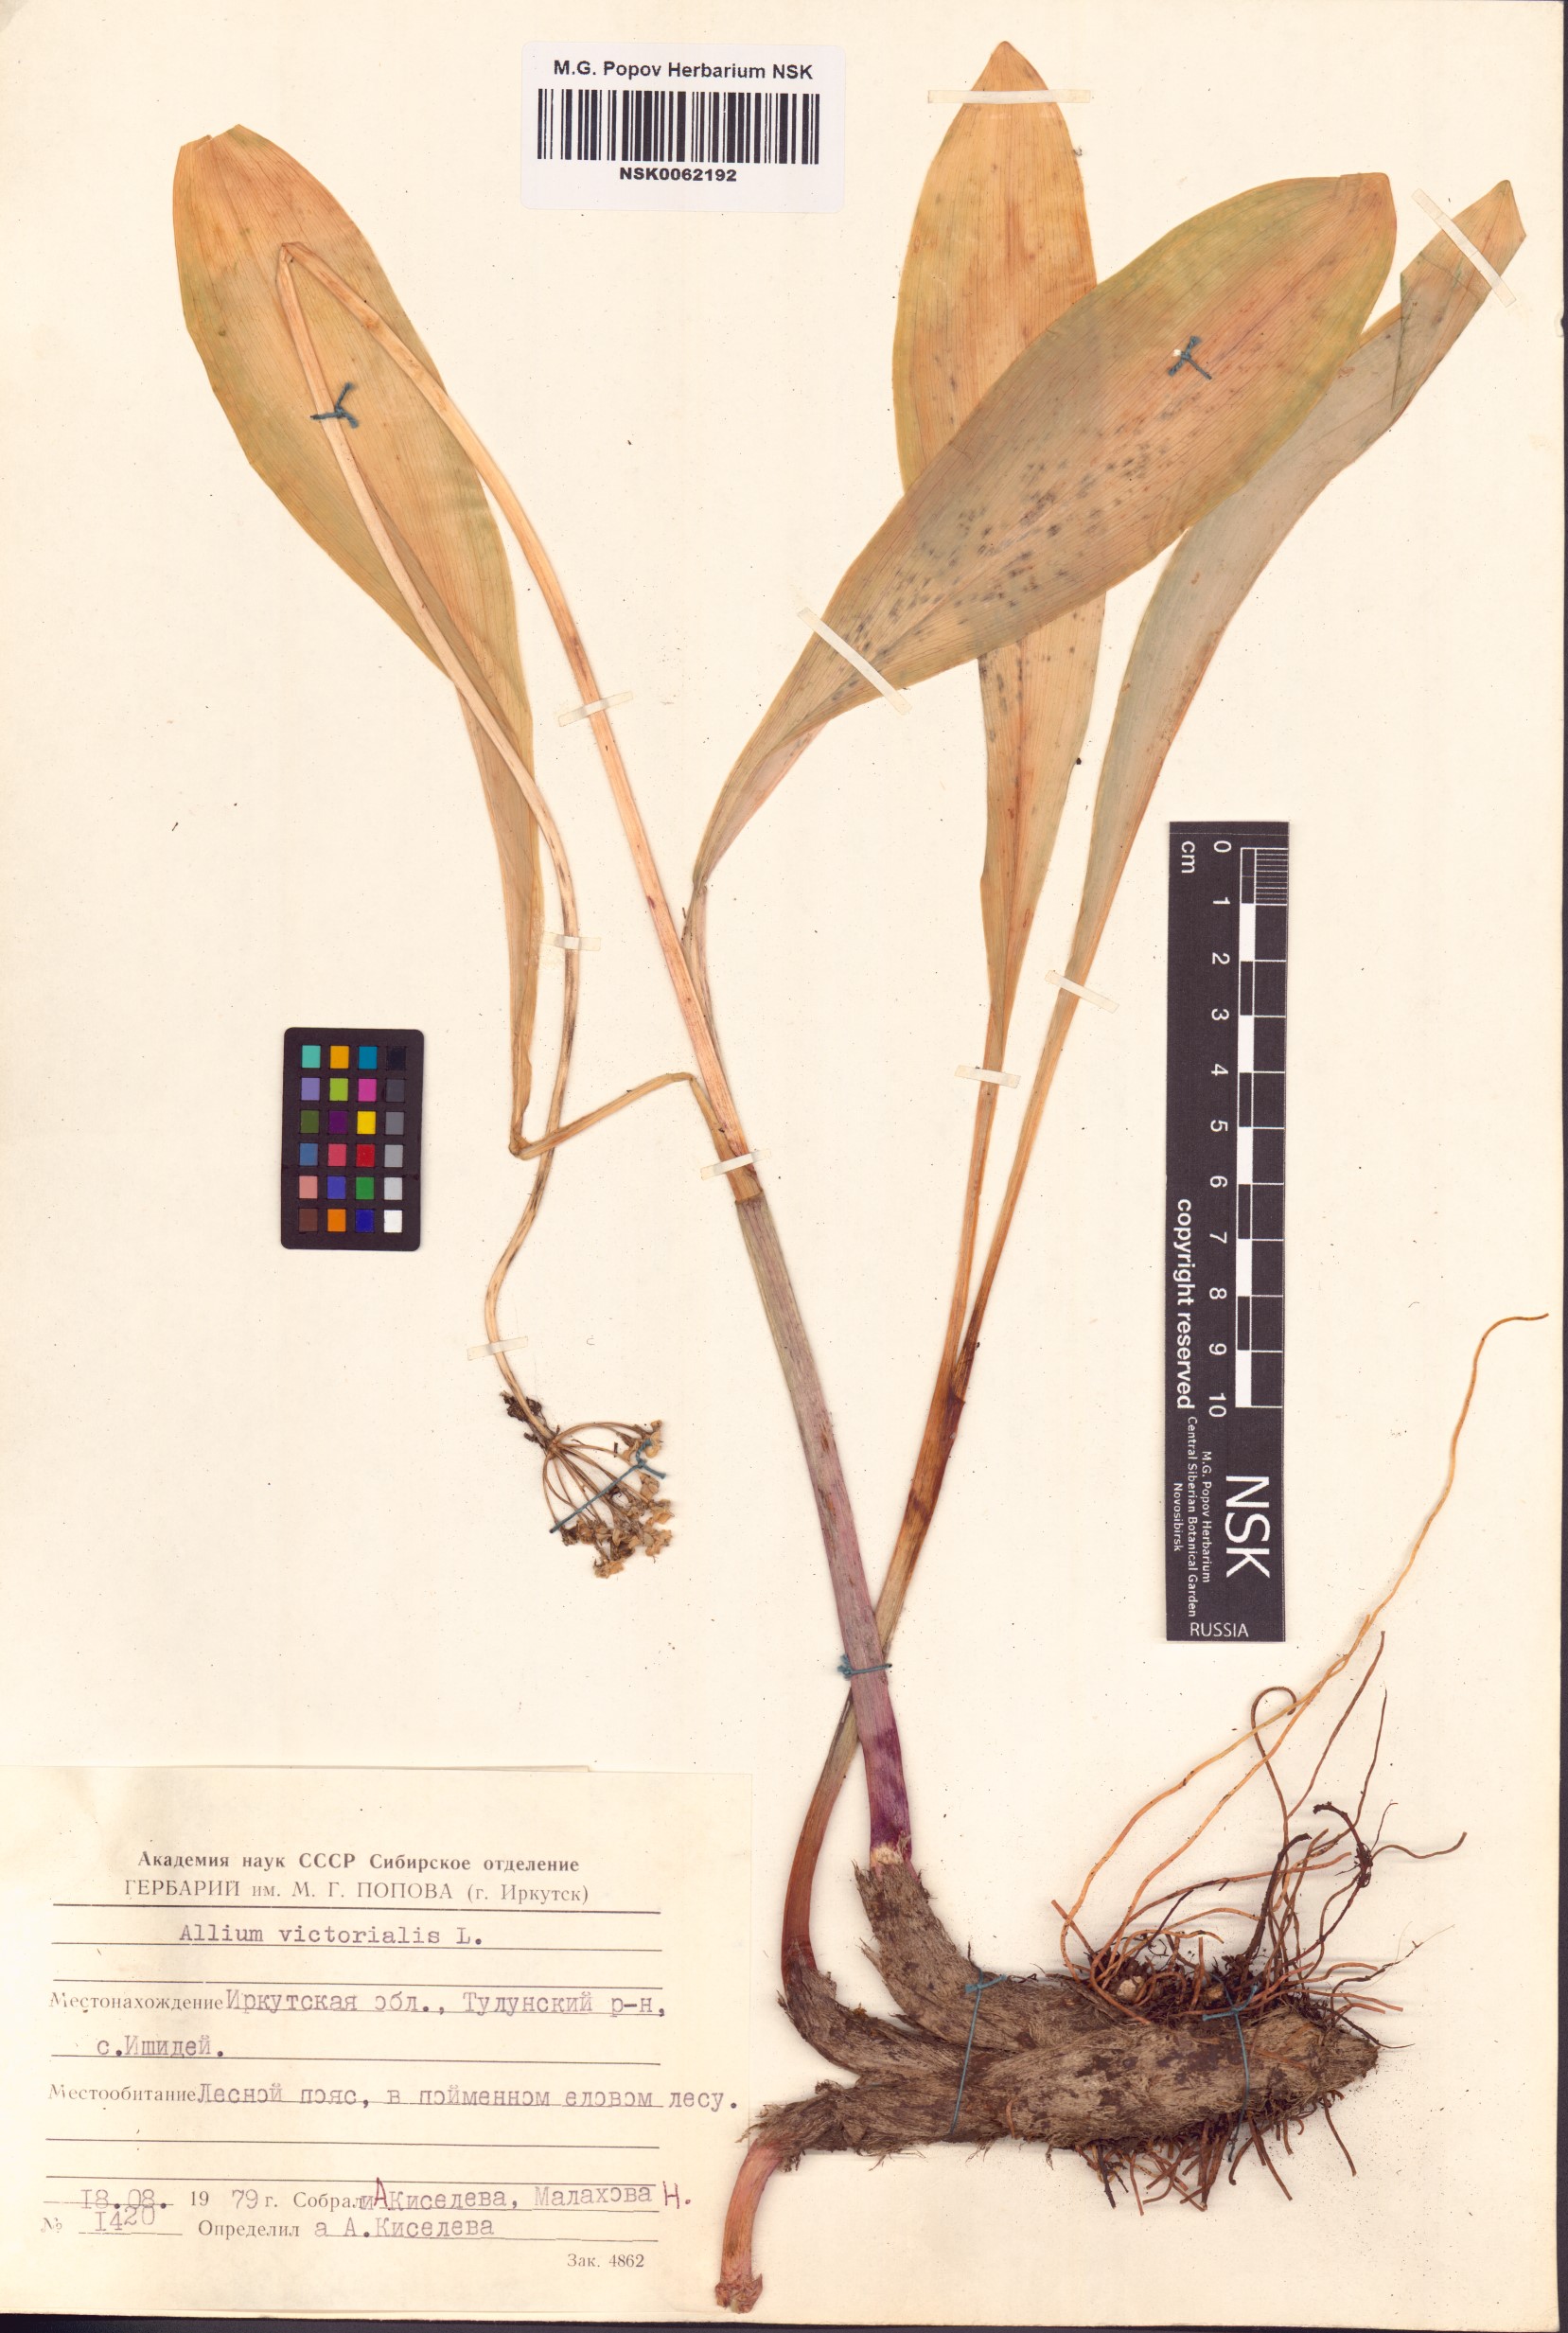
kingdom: Plantae
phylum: Tracheophyta
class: Liliopsida
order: Asparagales
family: Amaryllidaceae
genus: Allium
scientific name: Allium victorialis
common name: Alpine leek
